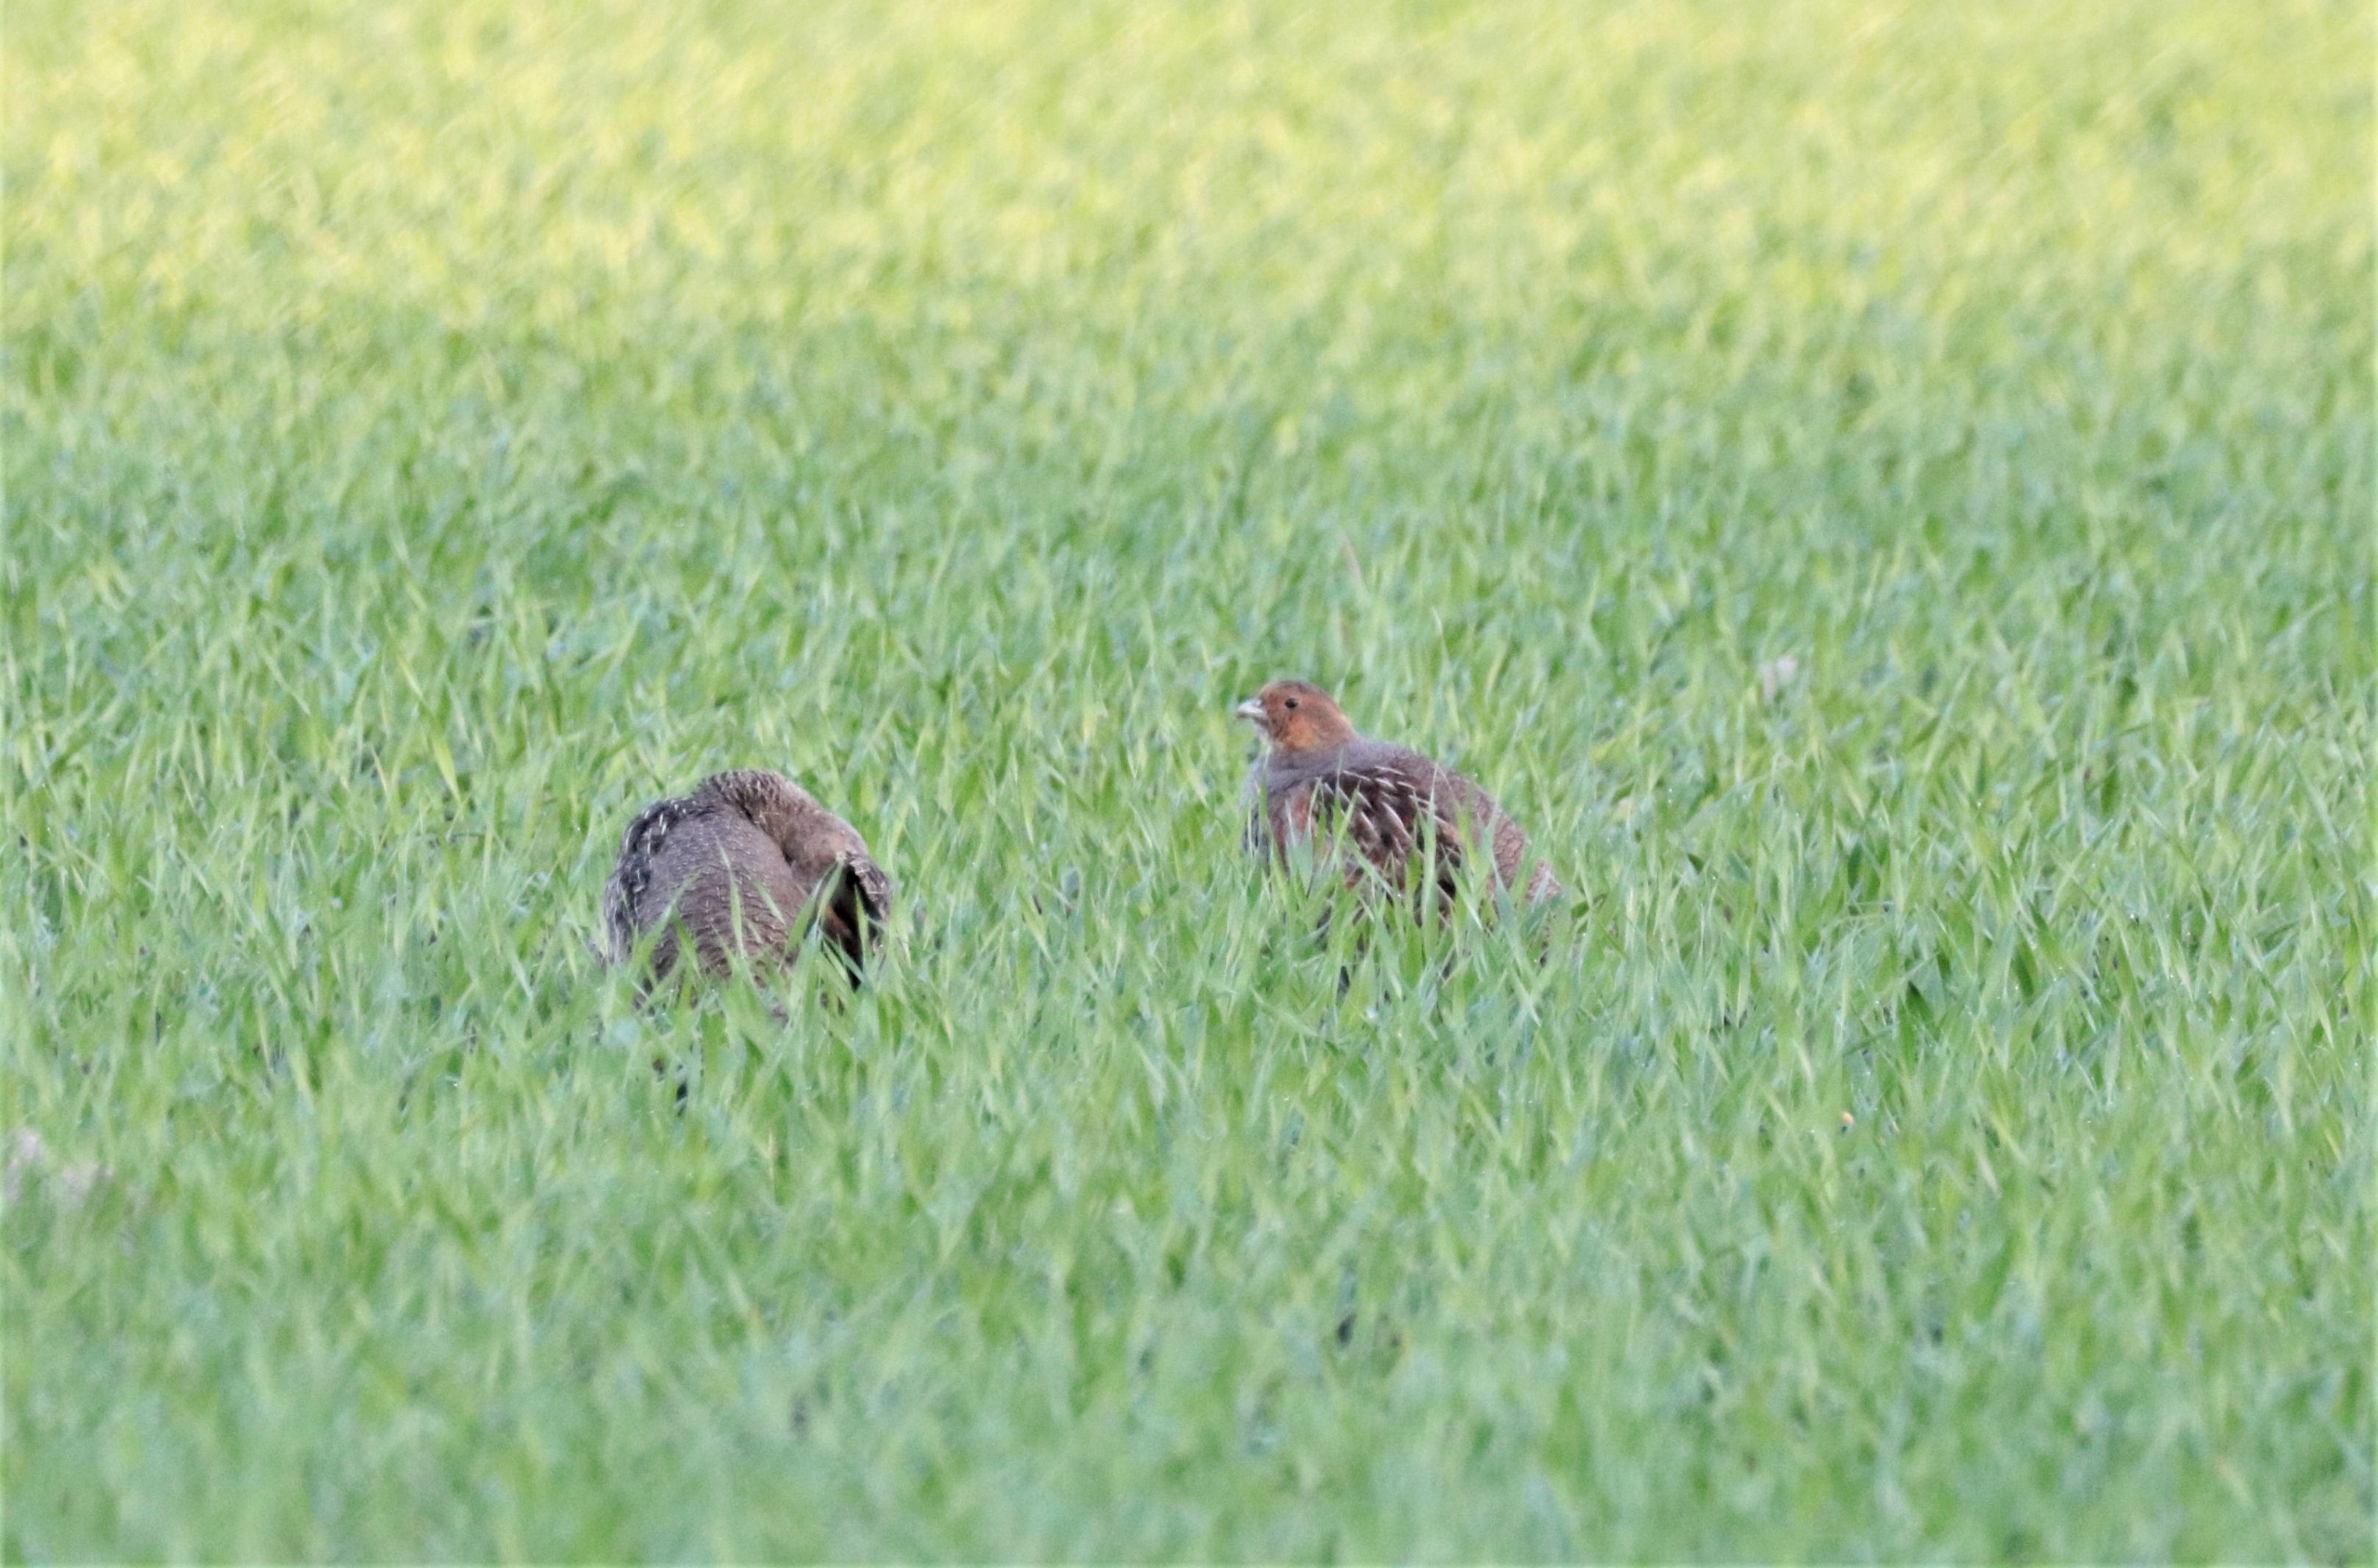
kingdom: Animalia
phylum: Chordata
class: Aves
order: Galliformes
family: Phasianidae
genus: Perdix
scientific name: Perdix perdix
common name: Agerhøne
